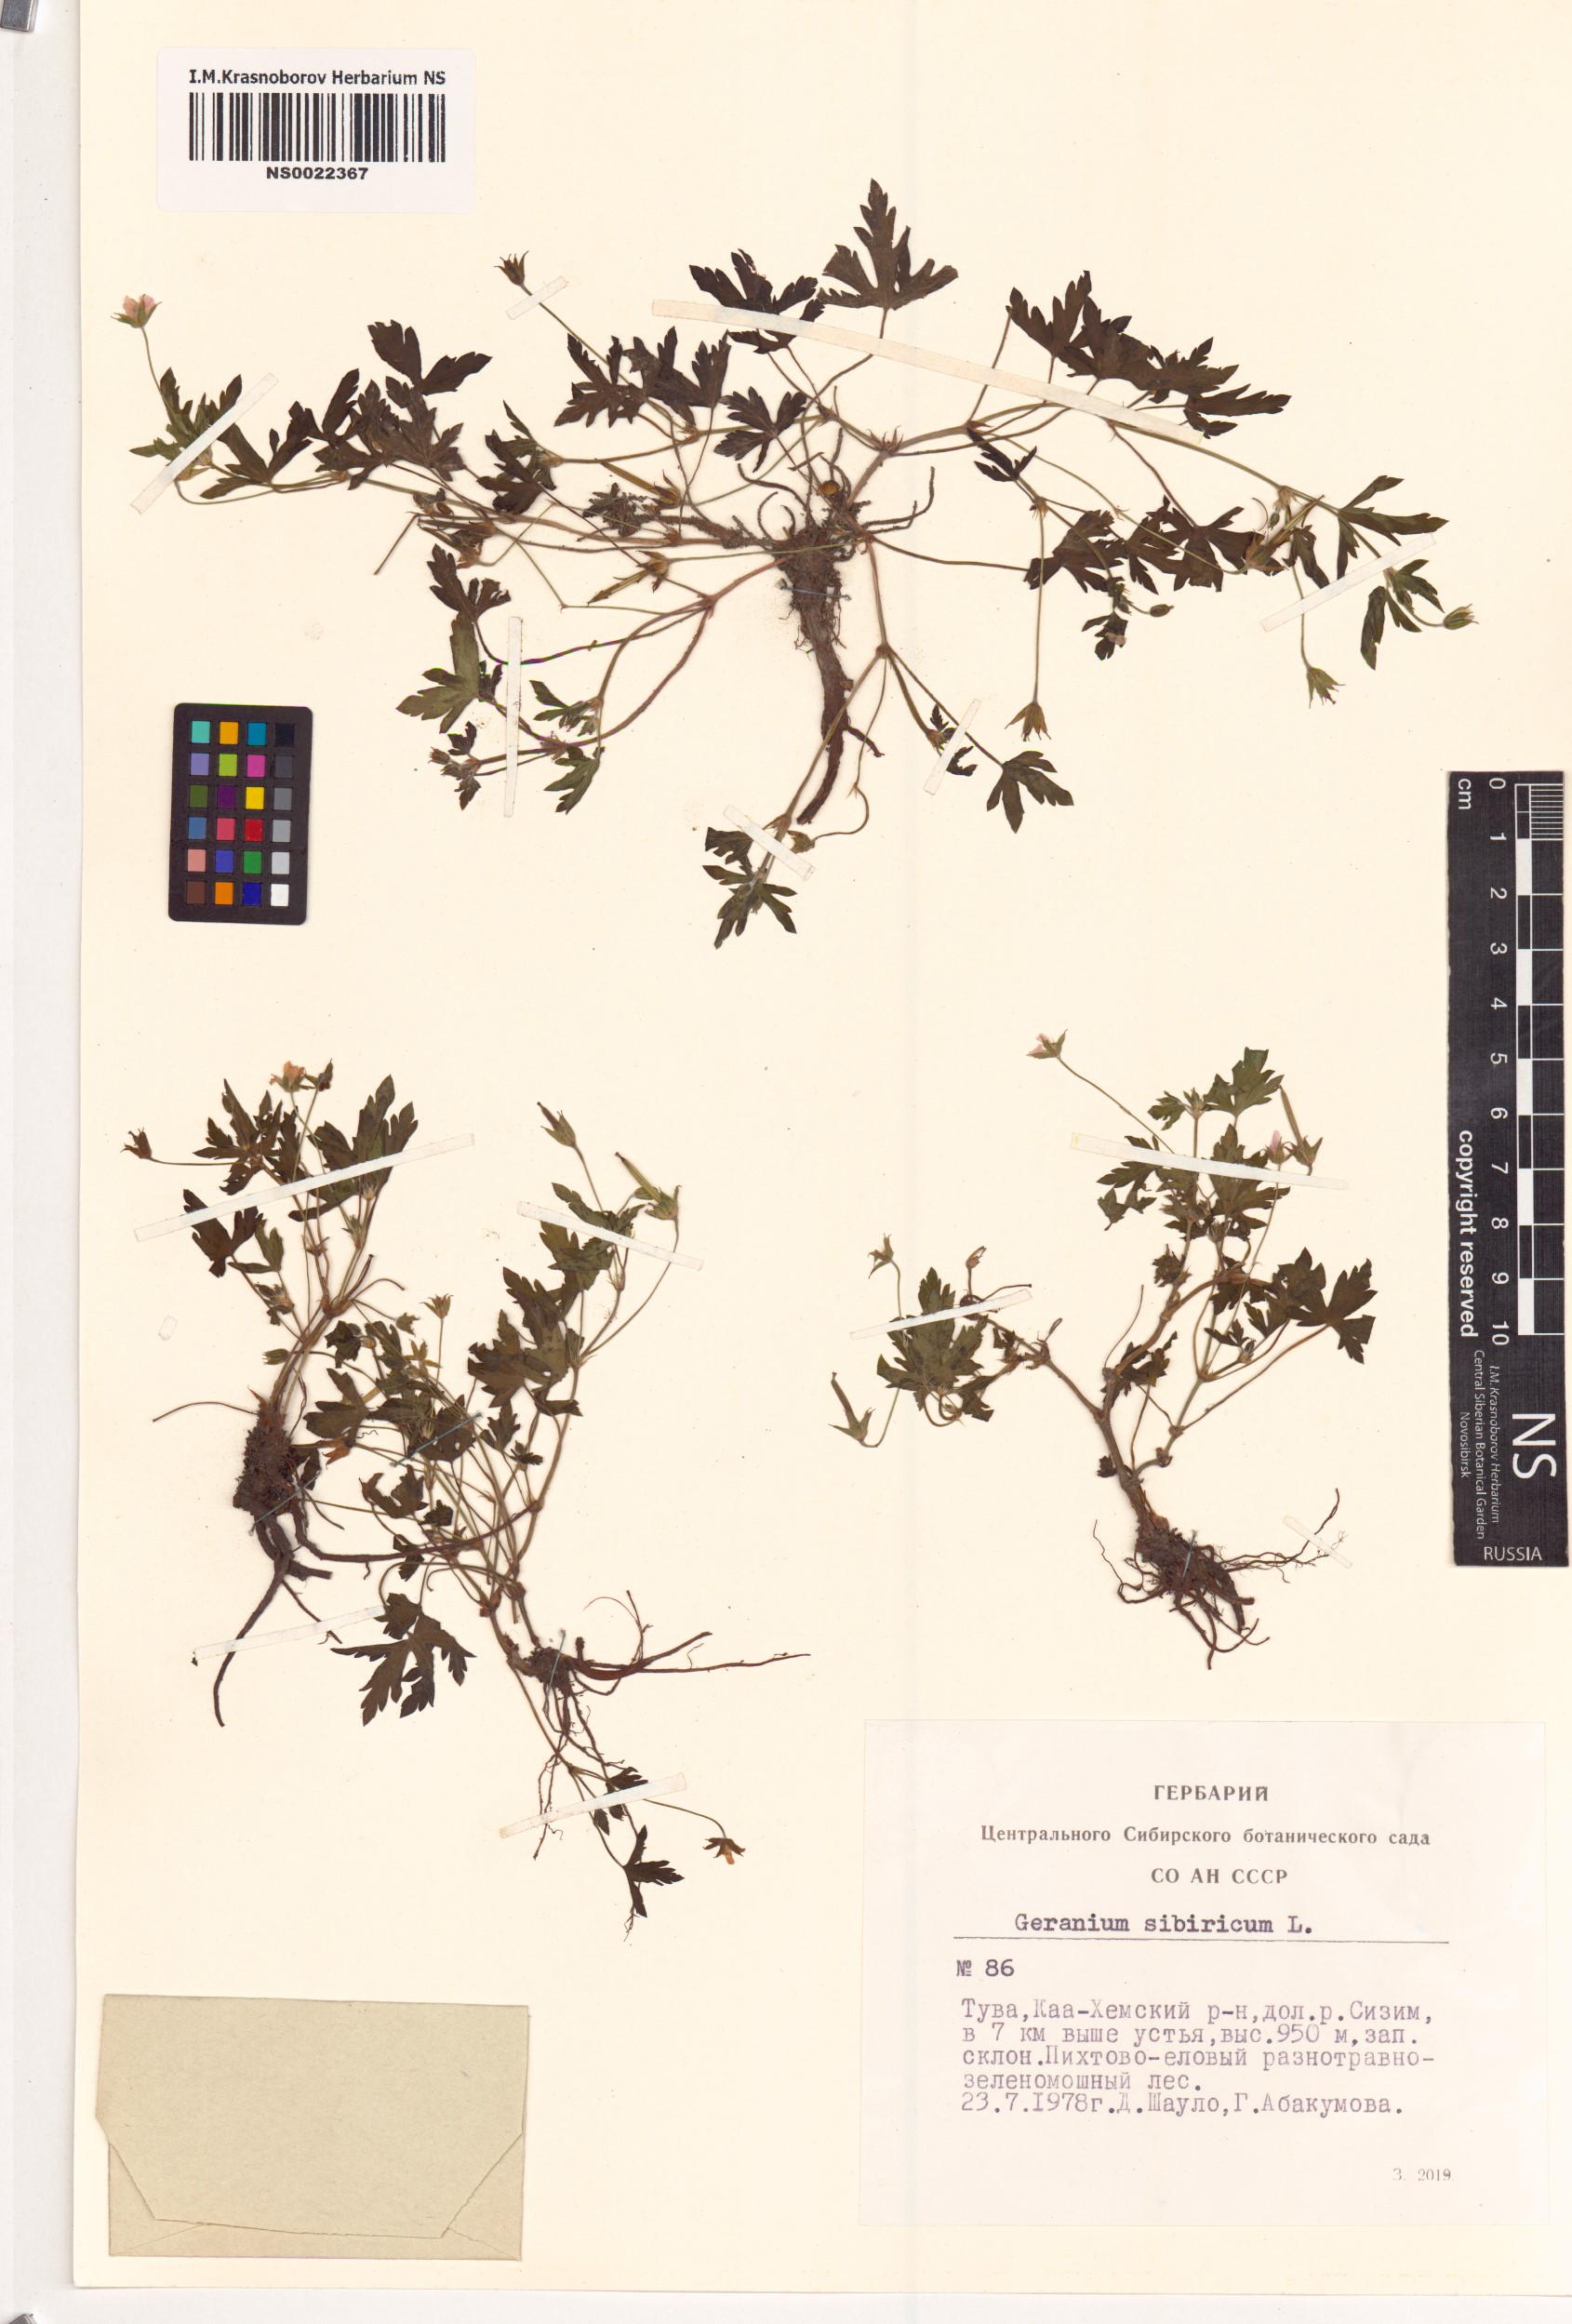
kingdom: Plantae
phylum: Tracheophyta
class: Magnoliopsida
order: Geraniales
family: Geraniaceae
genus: Geranium
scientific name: Geranium sibiricum
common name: Siberian crane's-bill
